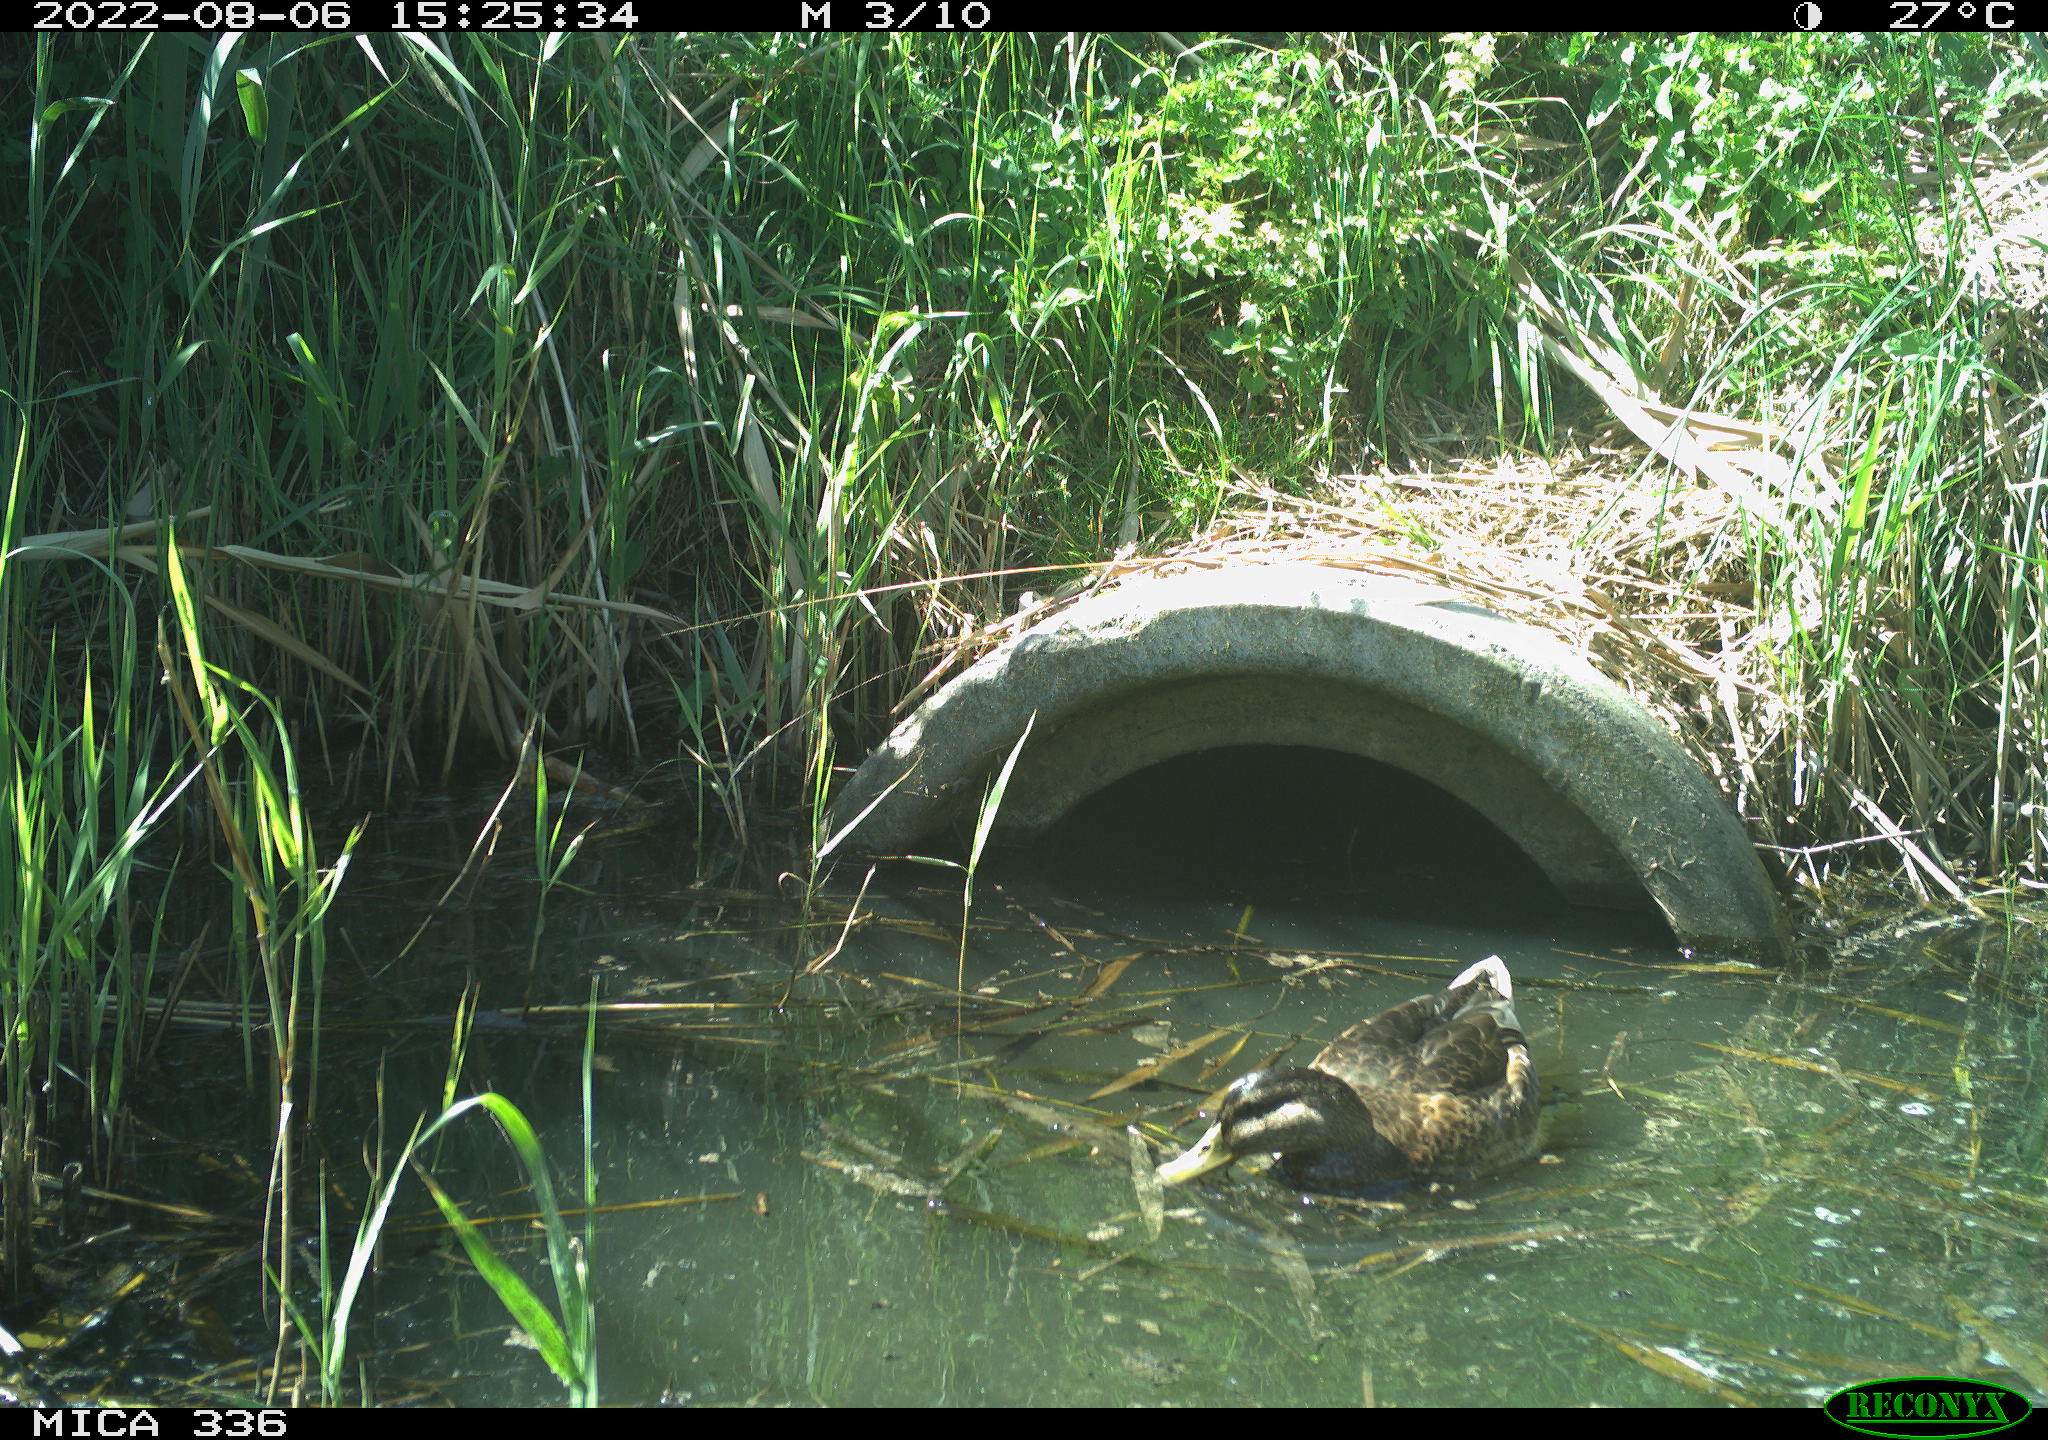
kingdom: Animalia
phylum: Chordata
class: Aves
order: Anseriformes
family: Anatidae
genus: Anas
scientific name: Anas platyrhynchos
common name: Mallard
